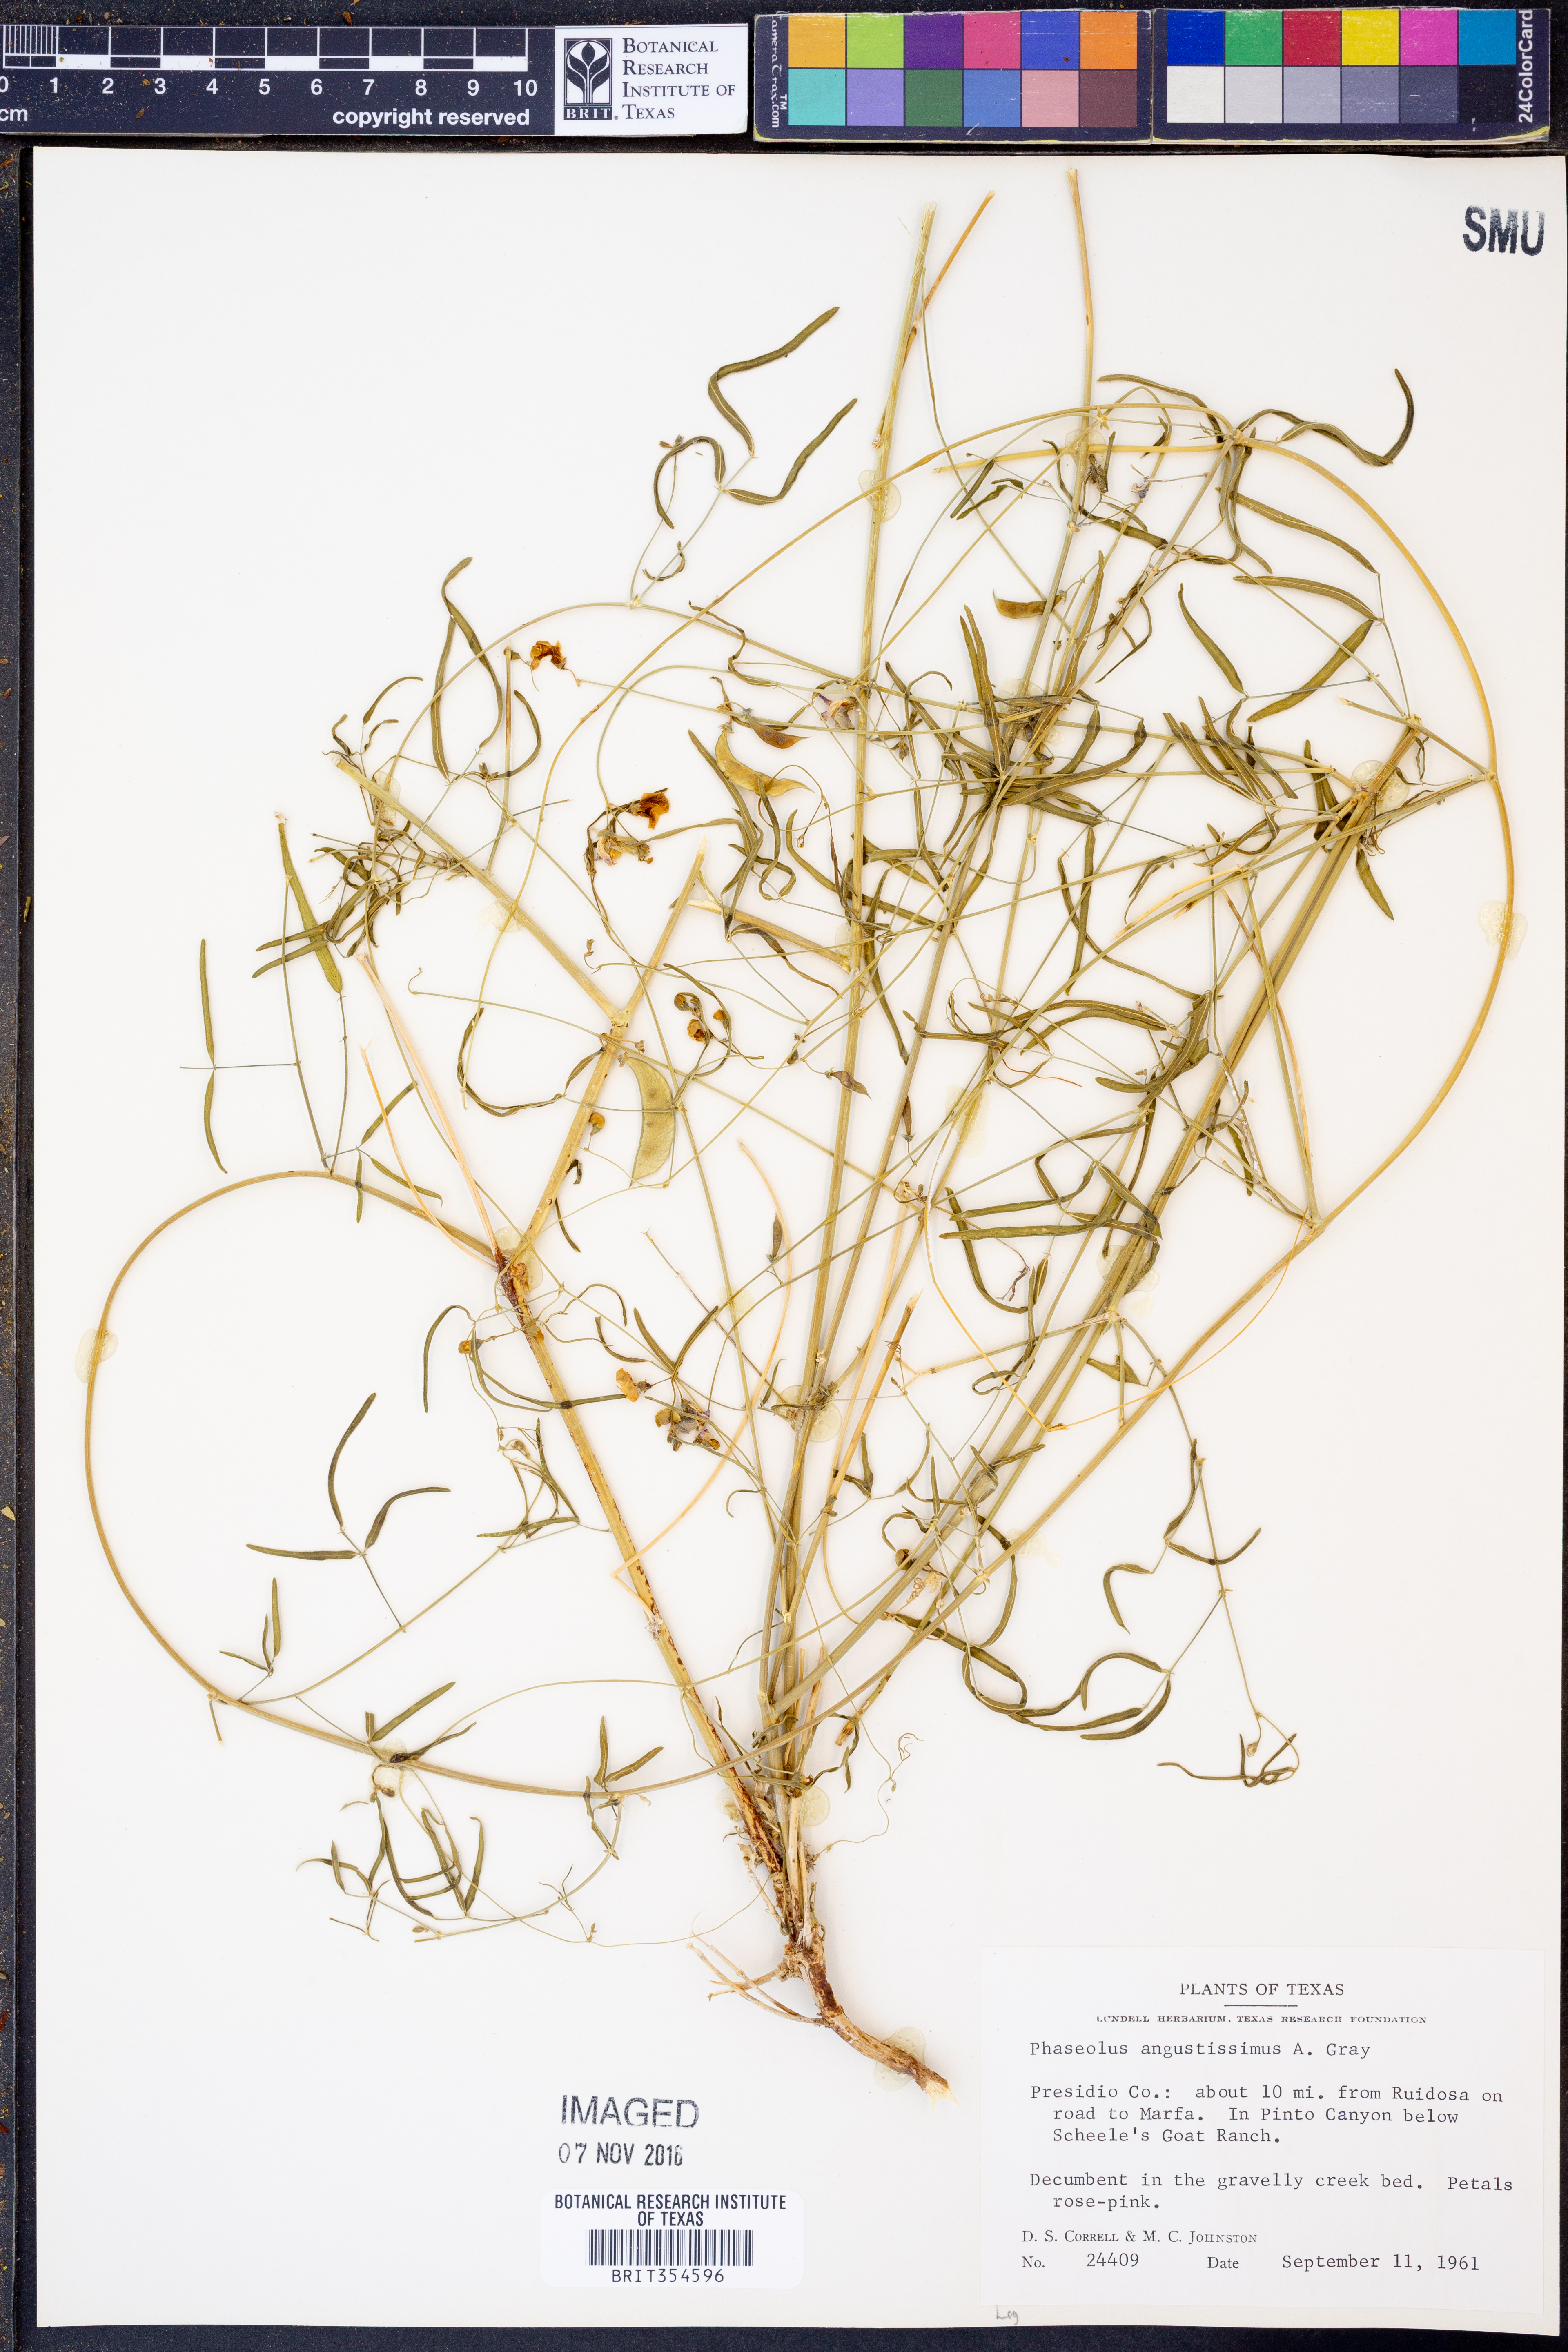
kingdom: Plantae
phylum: Tracheophyta
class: Magnoliopsida
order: Fabales
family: Fabaceae
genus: Phaseolus
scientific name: Phaseolus angustissimus
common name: Slimleaf bean
